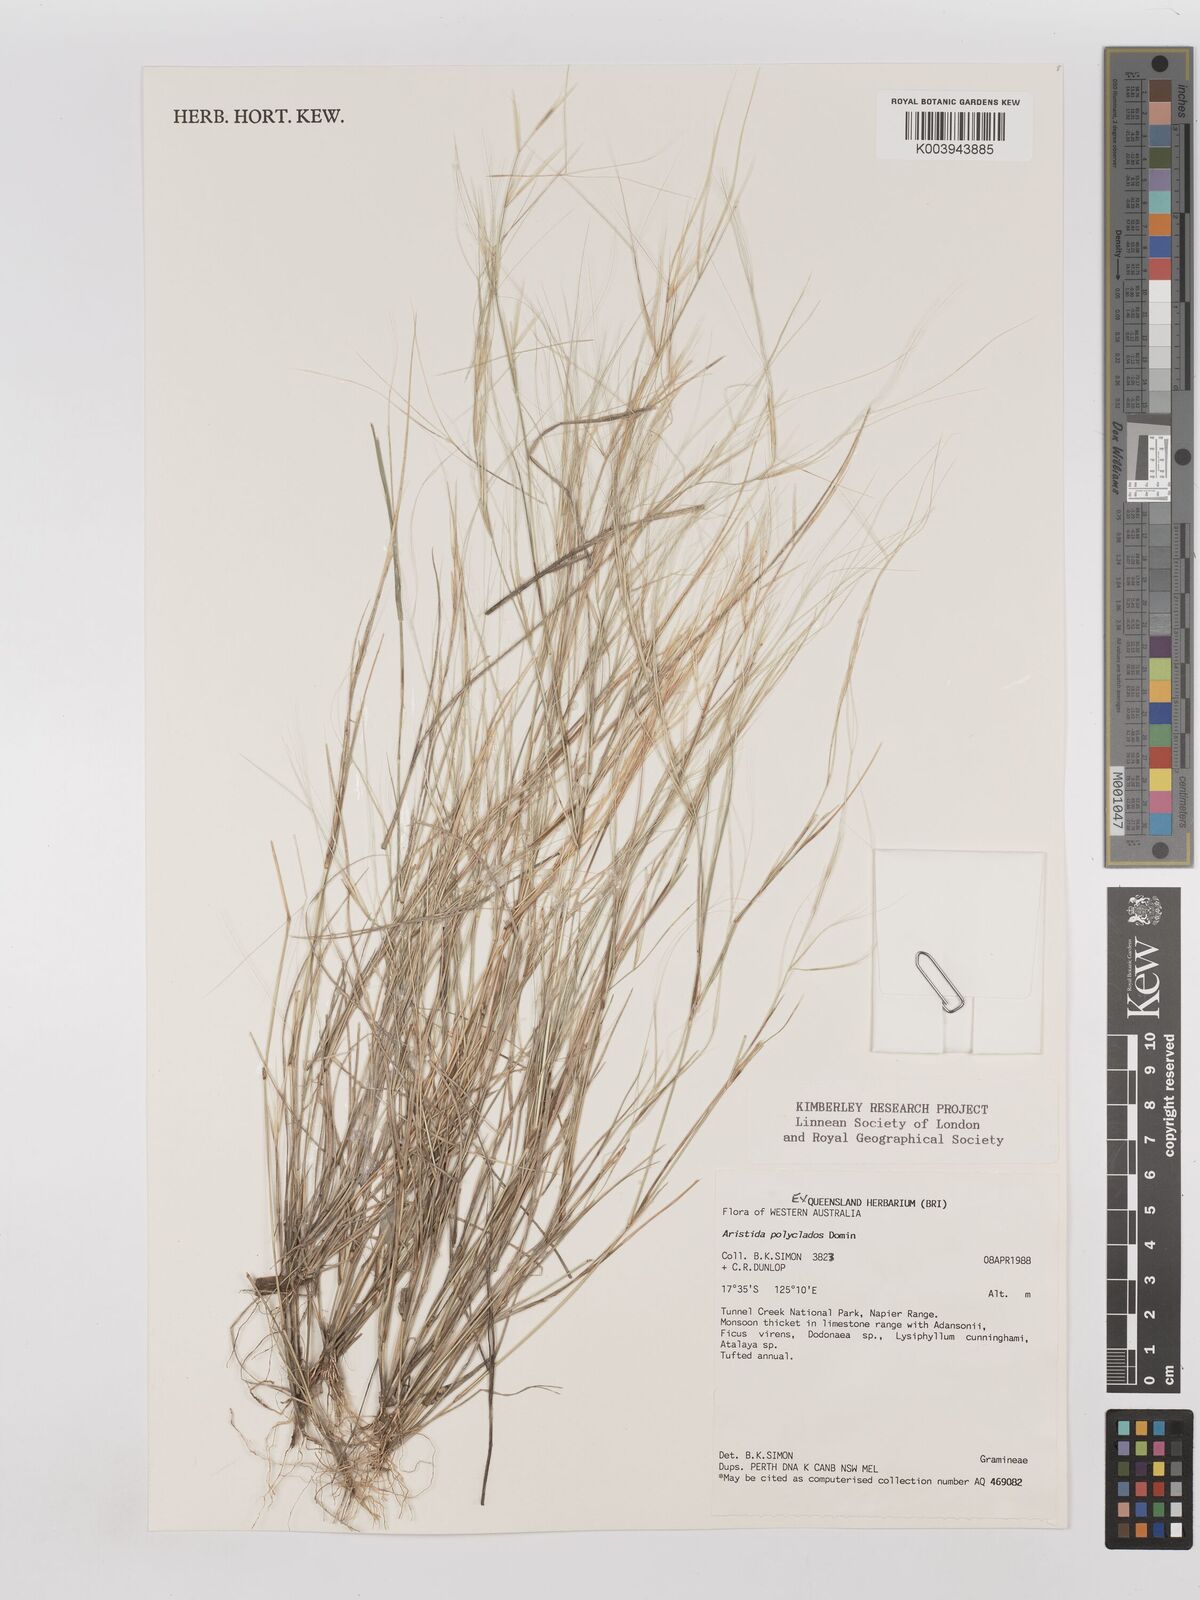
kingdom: Plantae
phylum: Tracheophyta
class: Liliopsida
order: Poales
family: Poaceae
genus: Aristida
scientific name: Aristida polyclados
